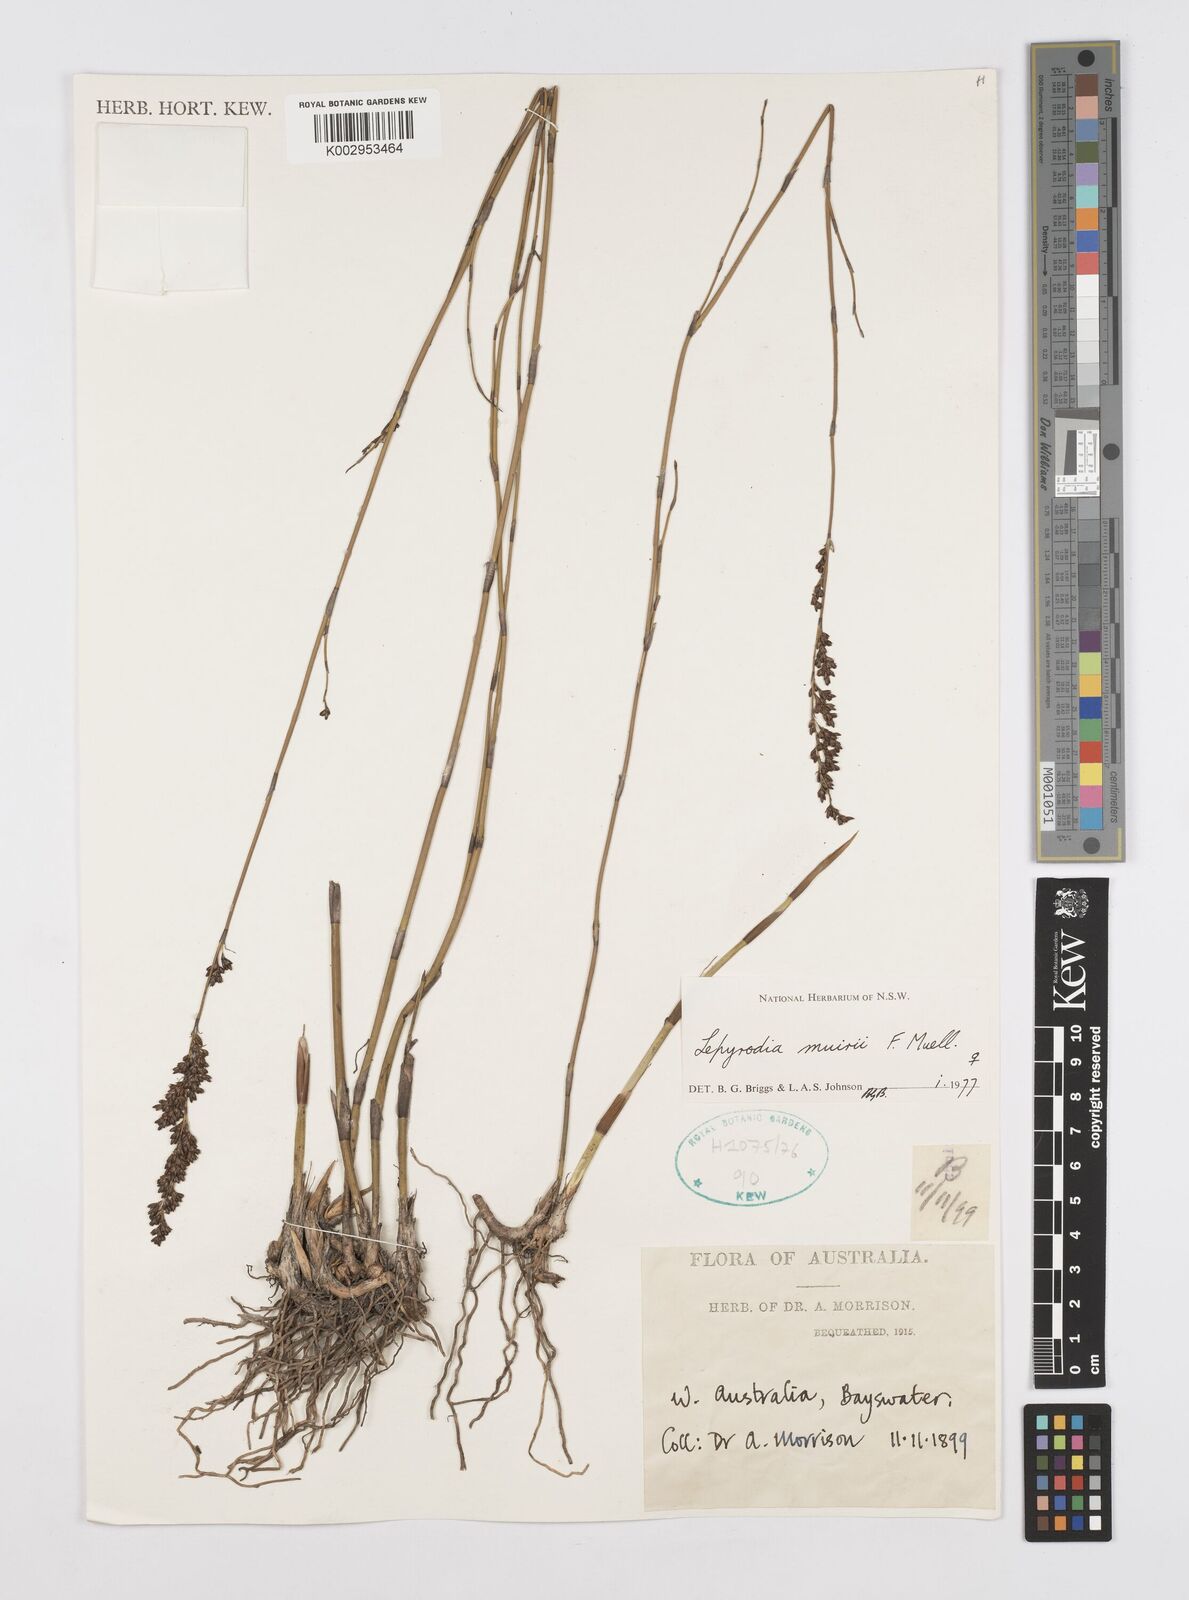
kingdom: Plantae
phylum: Tracheophyta
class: Liliopsida
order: Poales
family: Restionaceae
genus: Lepyrodia
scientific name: Lepyrodia muirii
